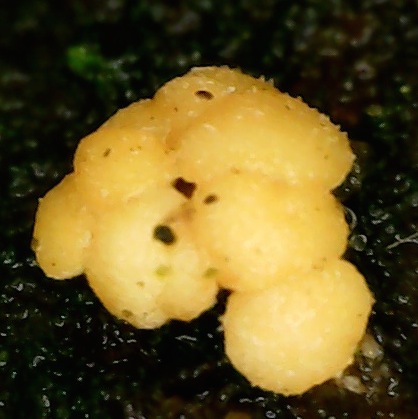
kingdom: Fungi
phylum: Ascomycota
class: Leotiomycetes
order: Helotiales
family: Dermateaceae
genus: Pezicula
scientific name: Pezicula carpinea
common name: avnbøg-klyngeskive
